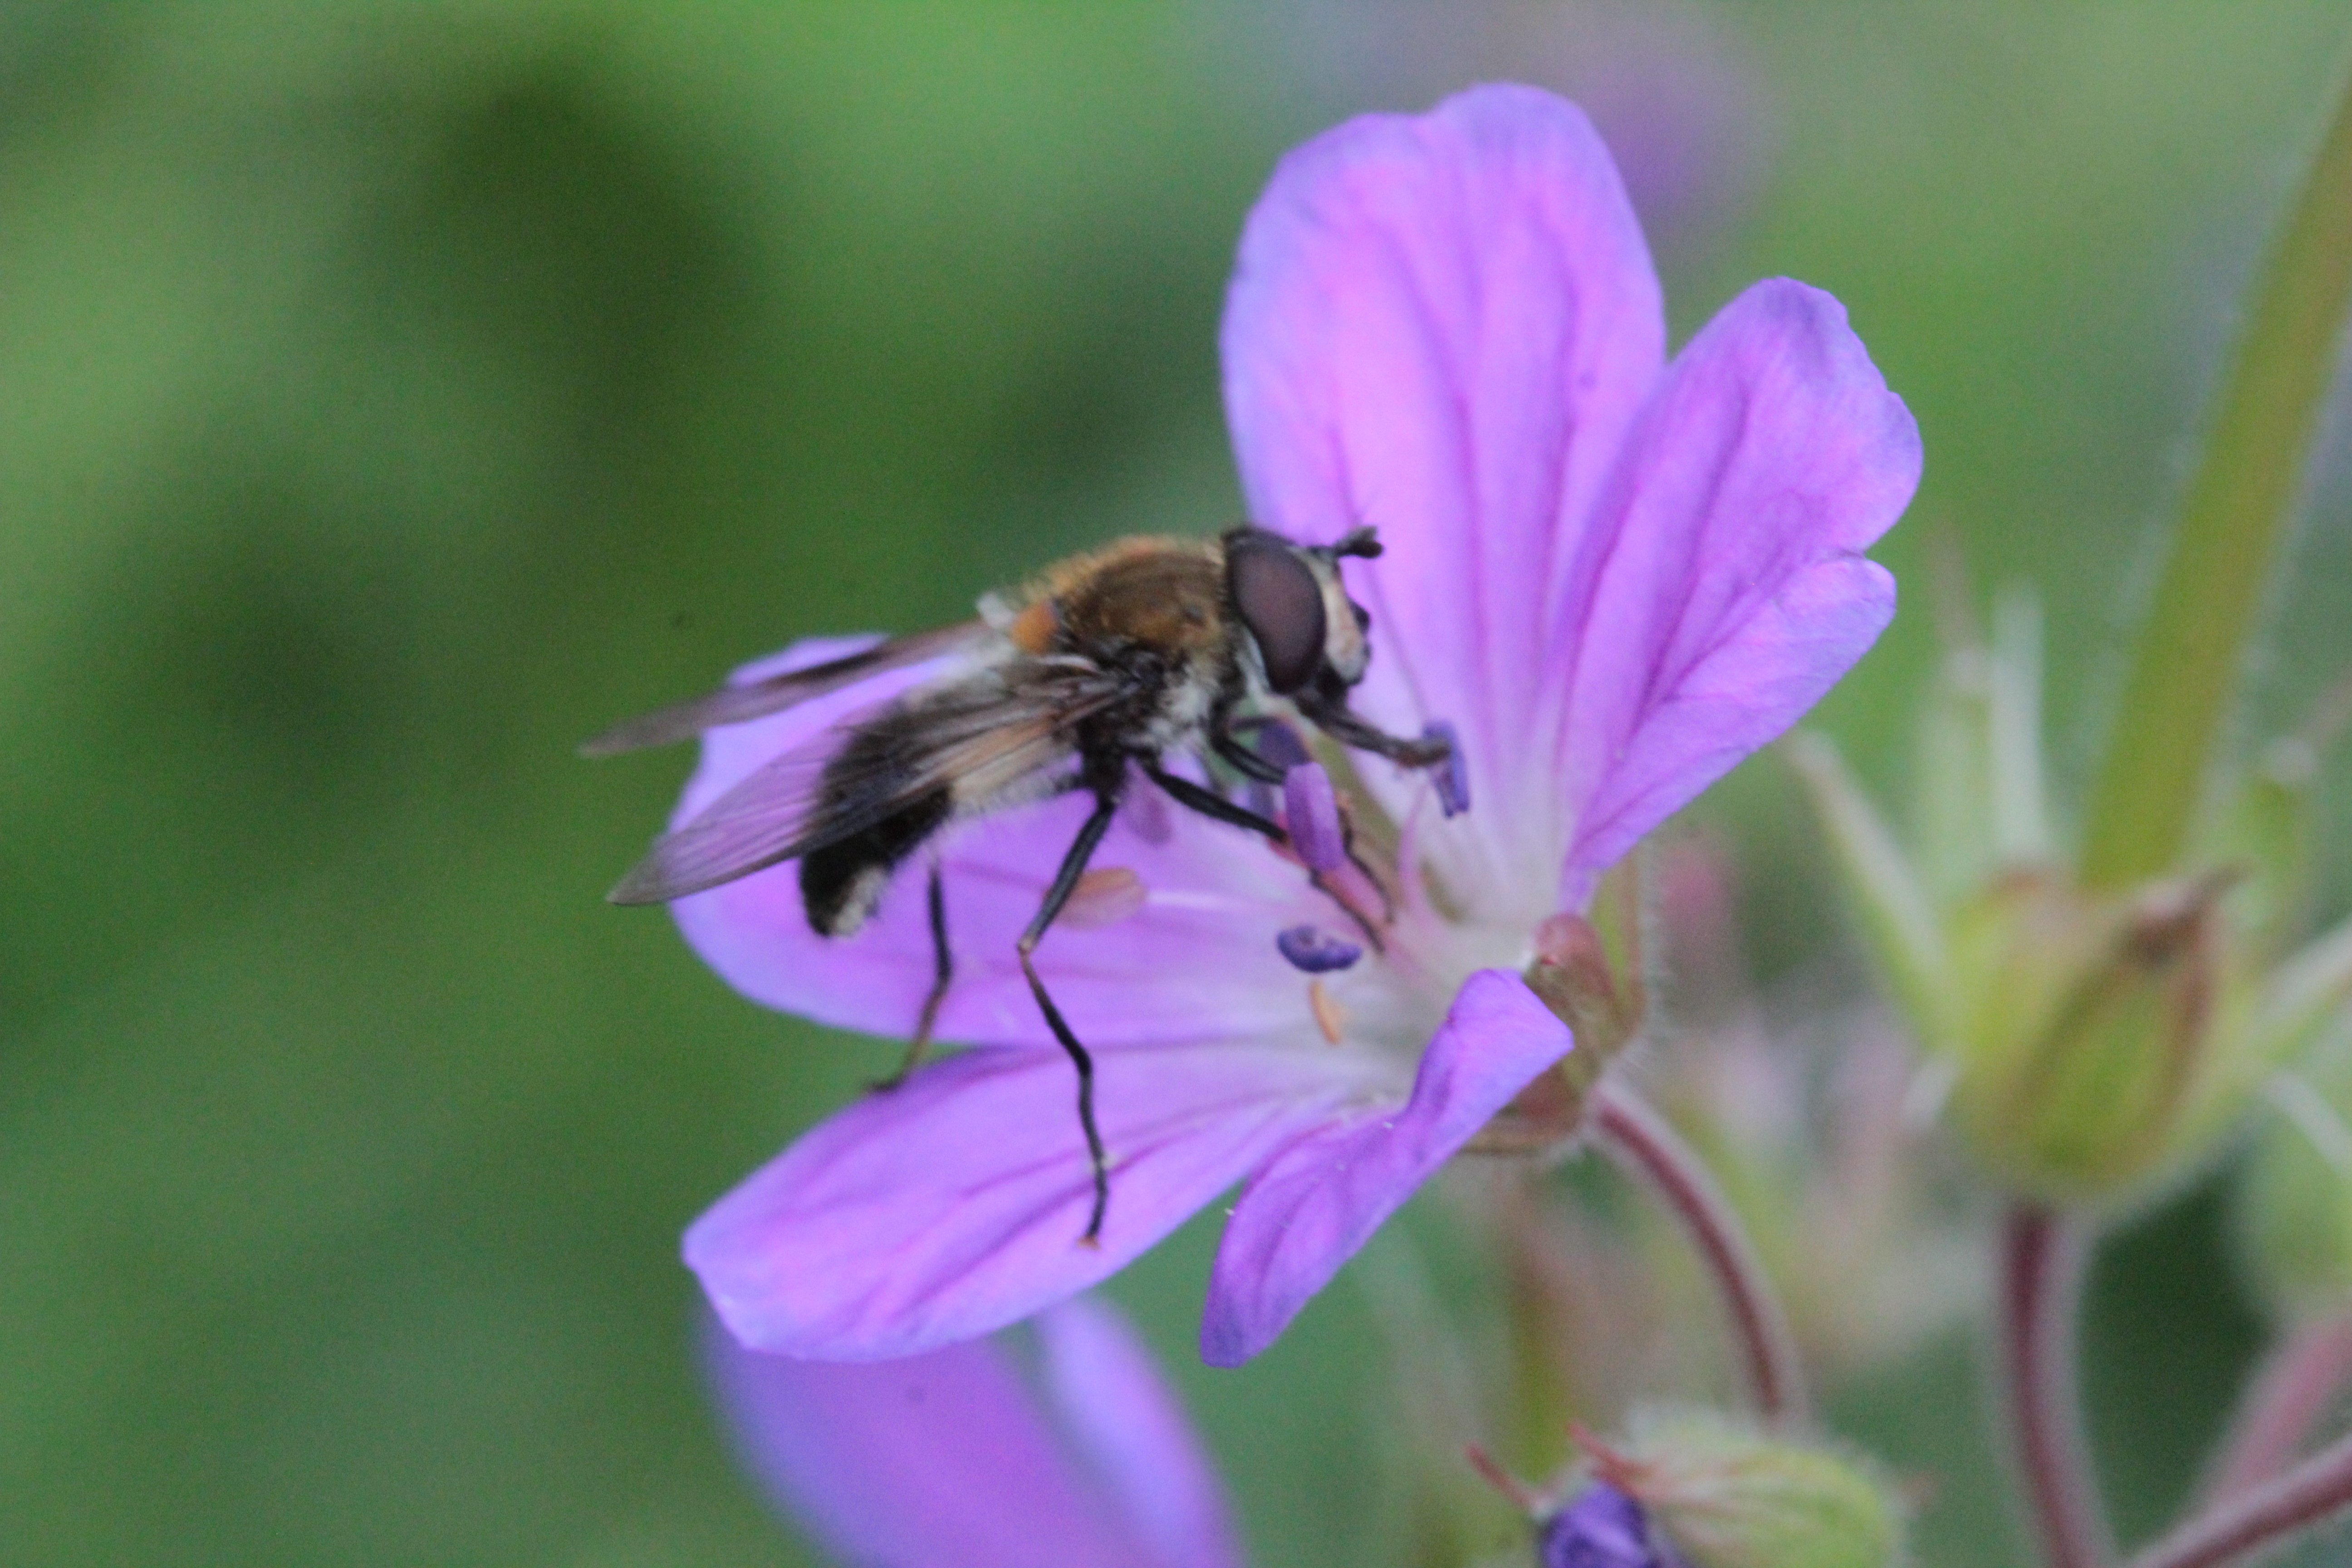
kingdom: Animalia
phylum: Arthropoda
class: Insecta
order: Diptera
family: Syrphidae
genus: Leucozona
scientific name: Leucozona lucorum
